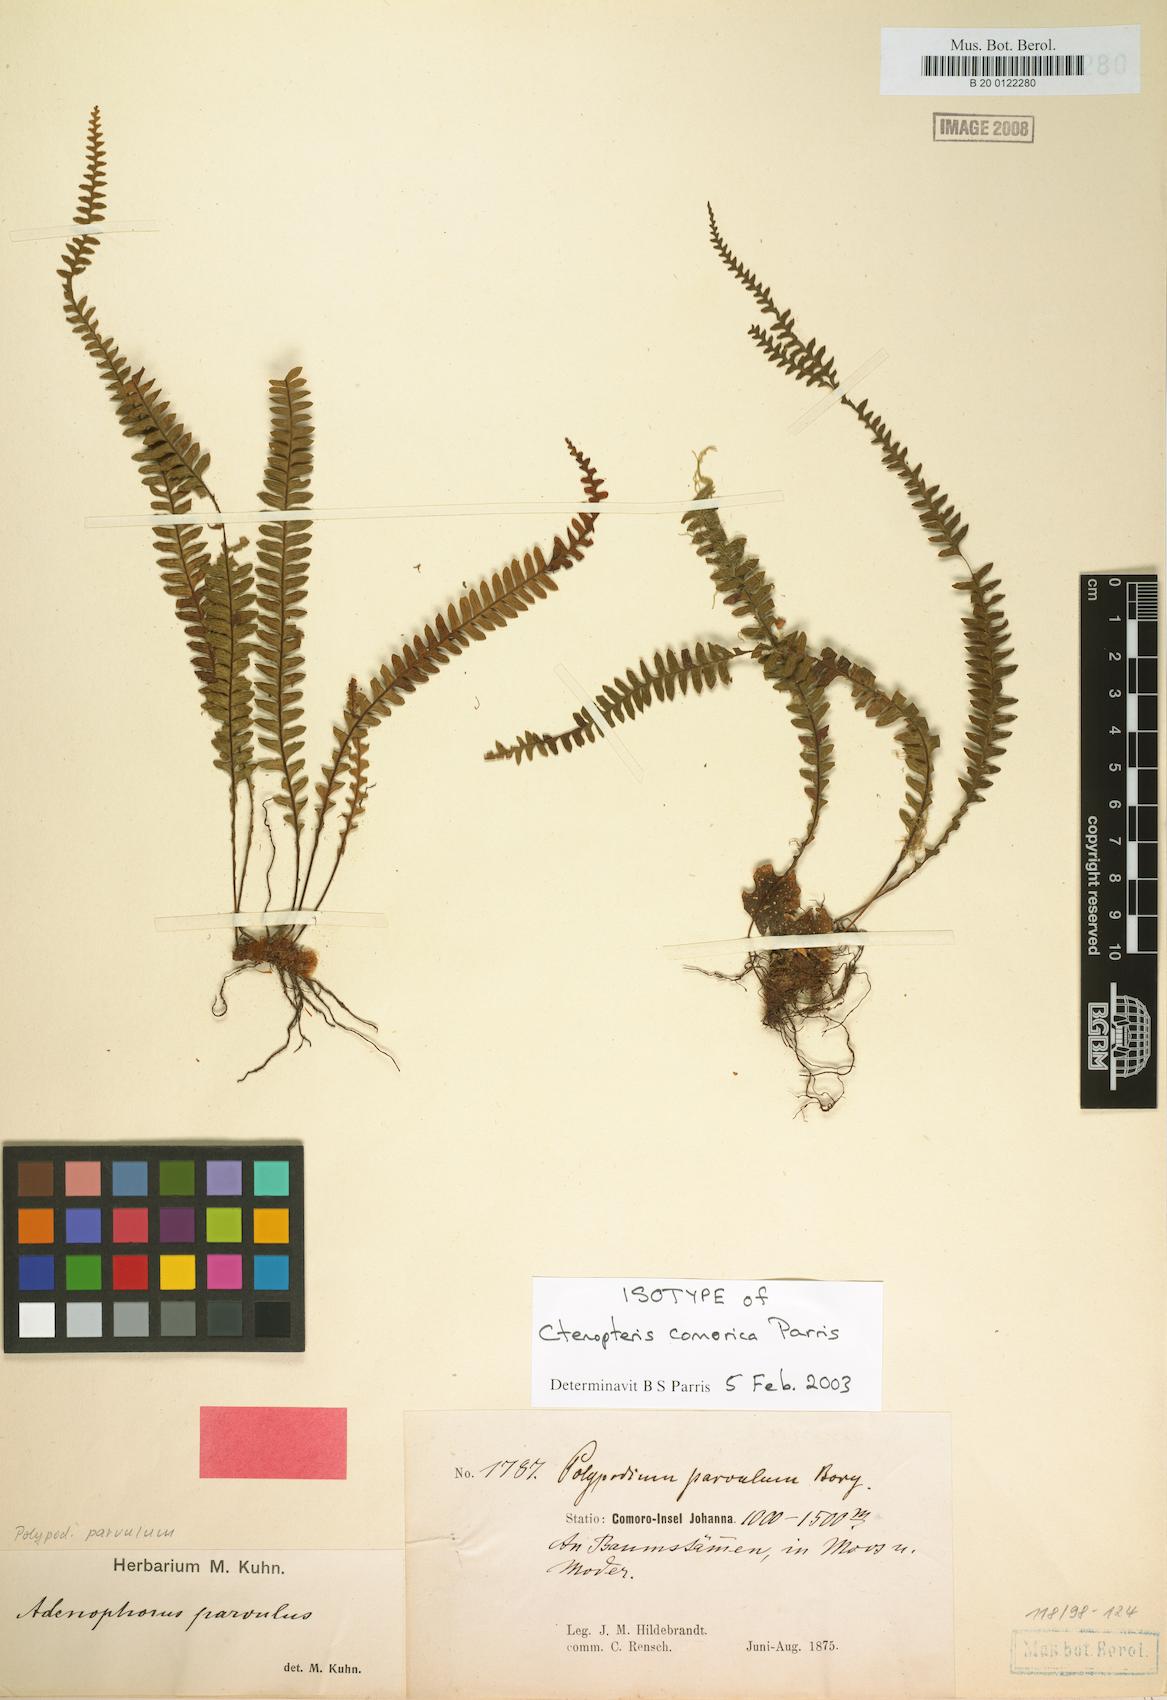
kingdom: Plantae
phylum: Tracheophyta
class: Polypodiopsida
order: Polypodiales
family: Polypodiaceae
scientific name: Polypodiaceae
